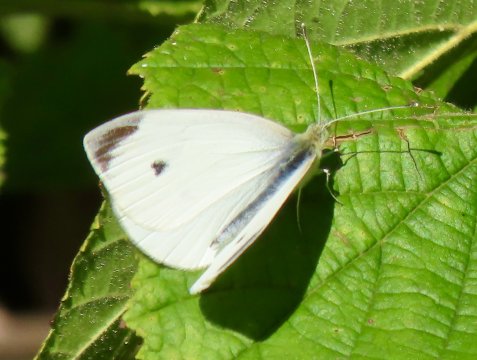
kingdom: Animalia
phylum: Arthropoda
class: Insecta
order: Lepidoptera
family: Pieridae
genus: Pieris
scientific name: Pieris rapae
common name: Cabbage White
